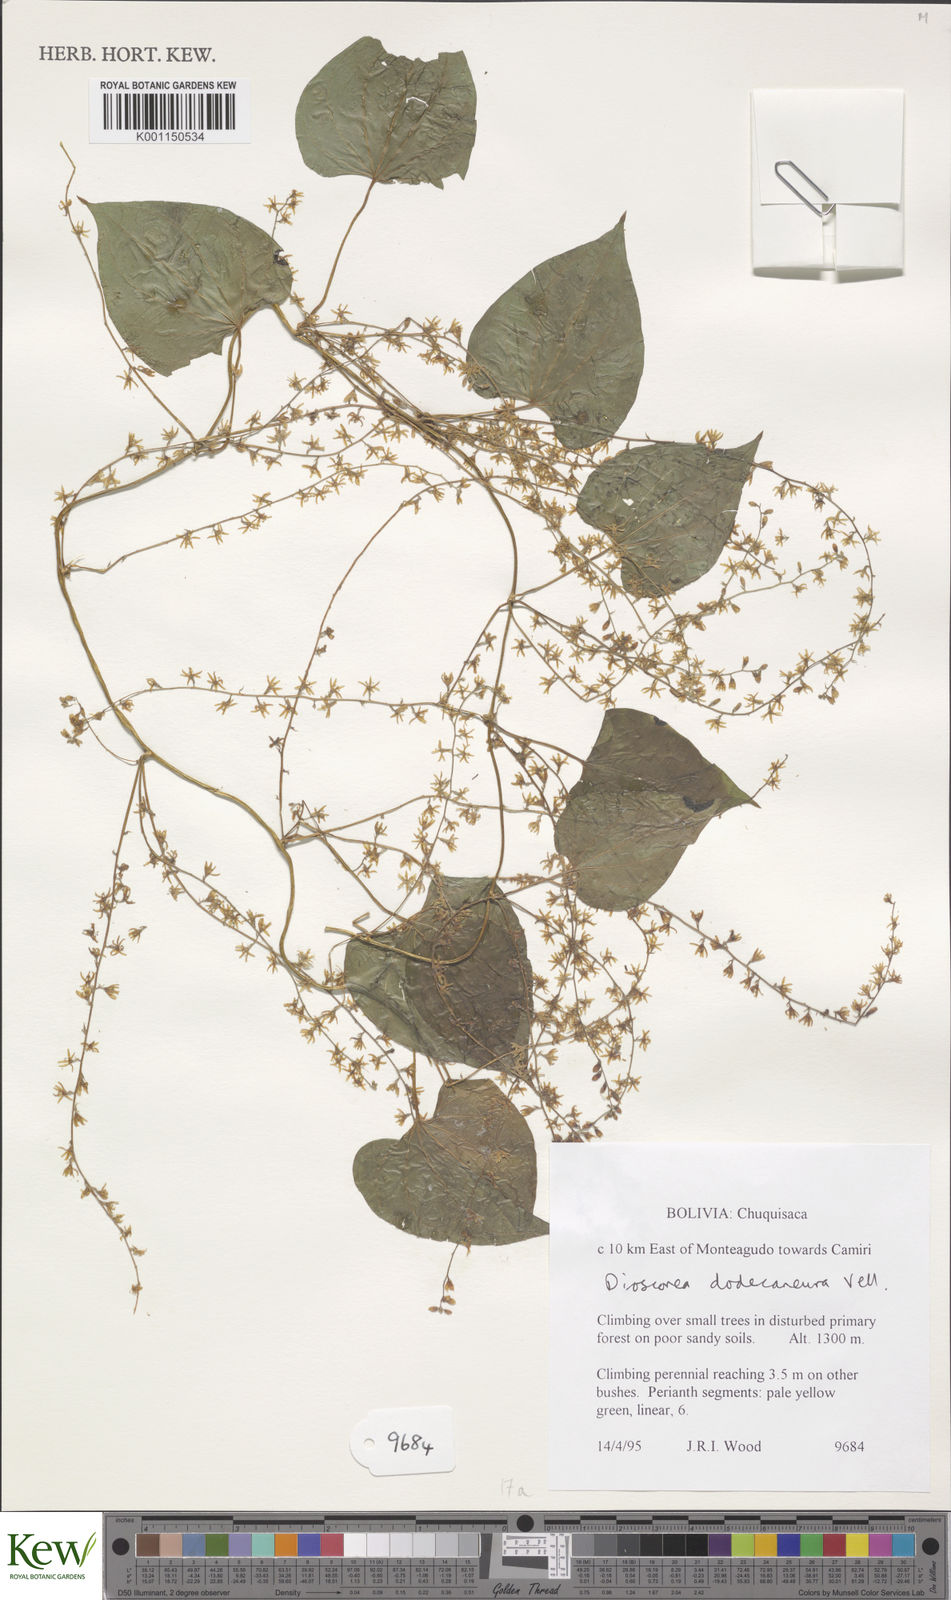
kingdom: Plantae
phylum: Tracheophyta
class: Liliopsida
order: Dioscoreales
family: Dioscoreaceae
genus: Dioscorea
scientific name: Dioscorea dodecaneura
